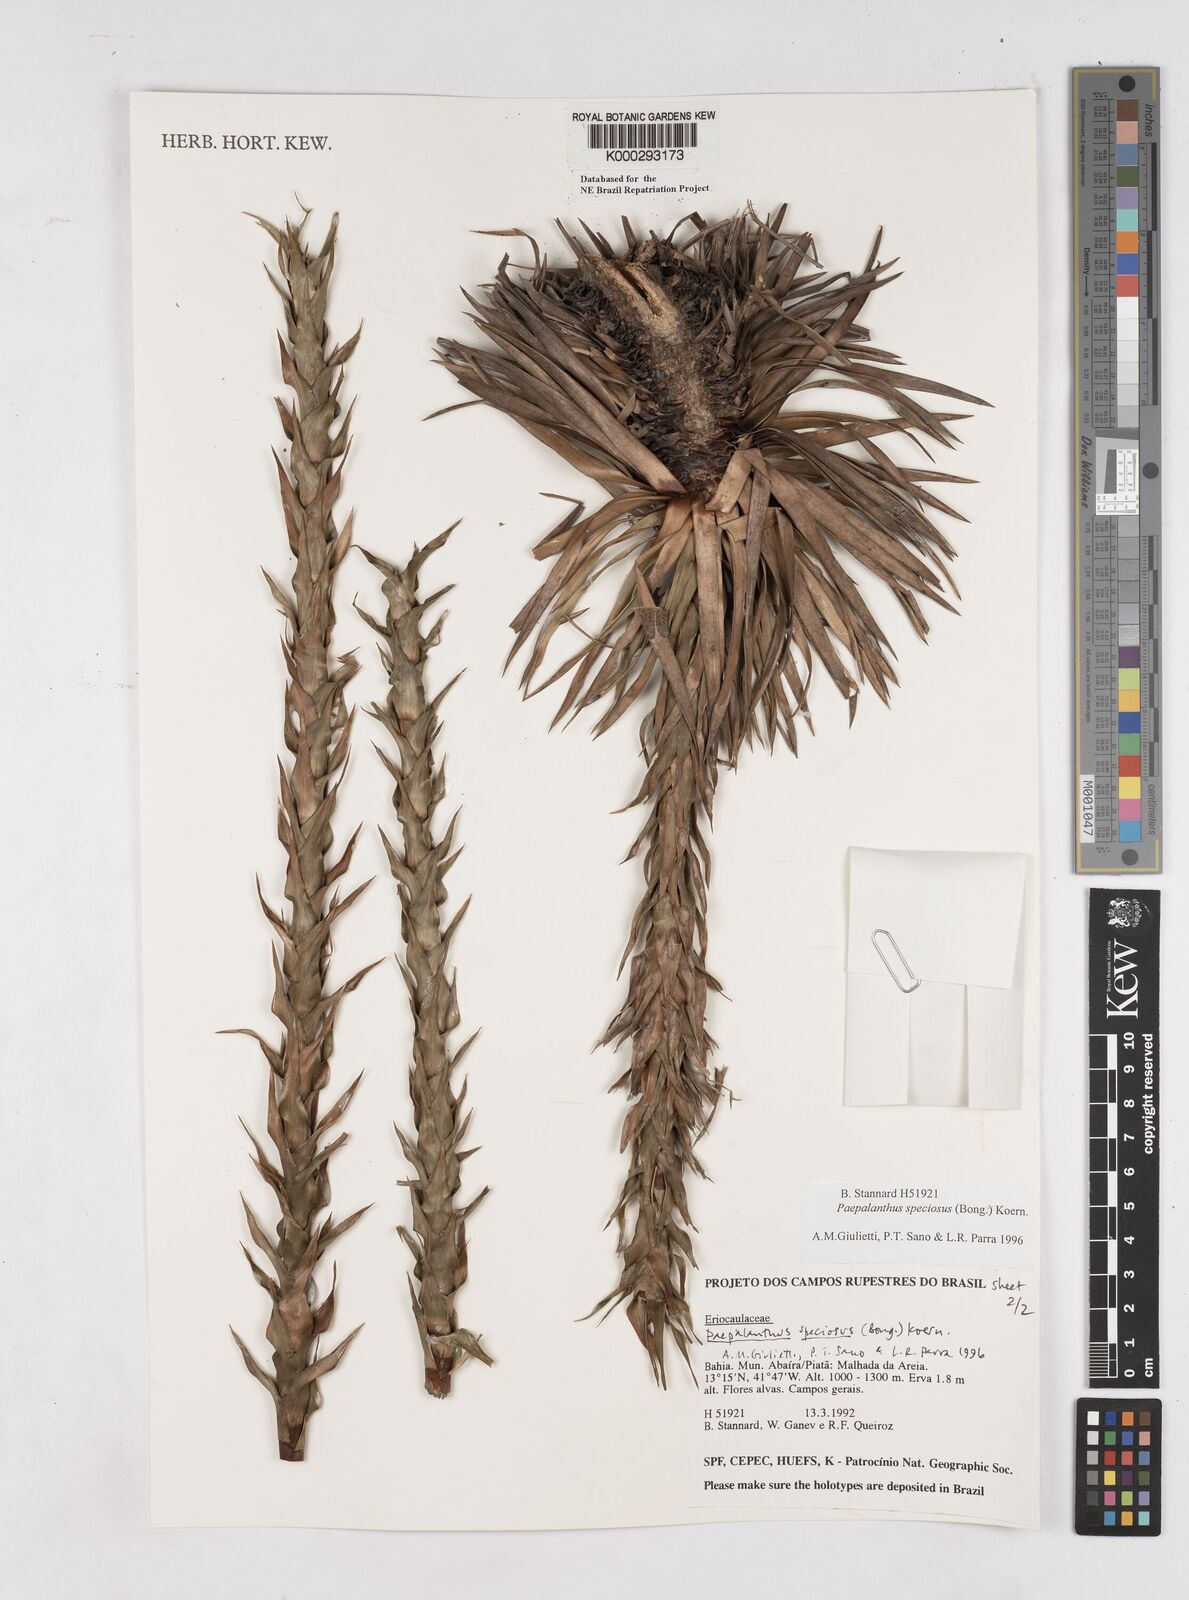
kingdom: Plantae
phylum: Tracheophyta
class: Liliopsida
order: Poales
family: Eriocaulaceae
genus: Paepalanthus
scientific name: Paepalanthus
